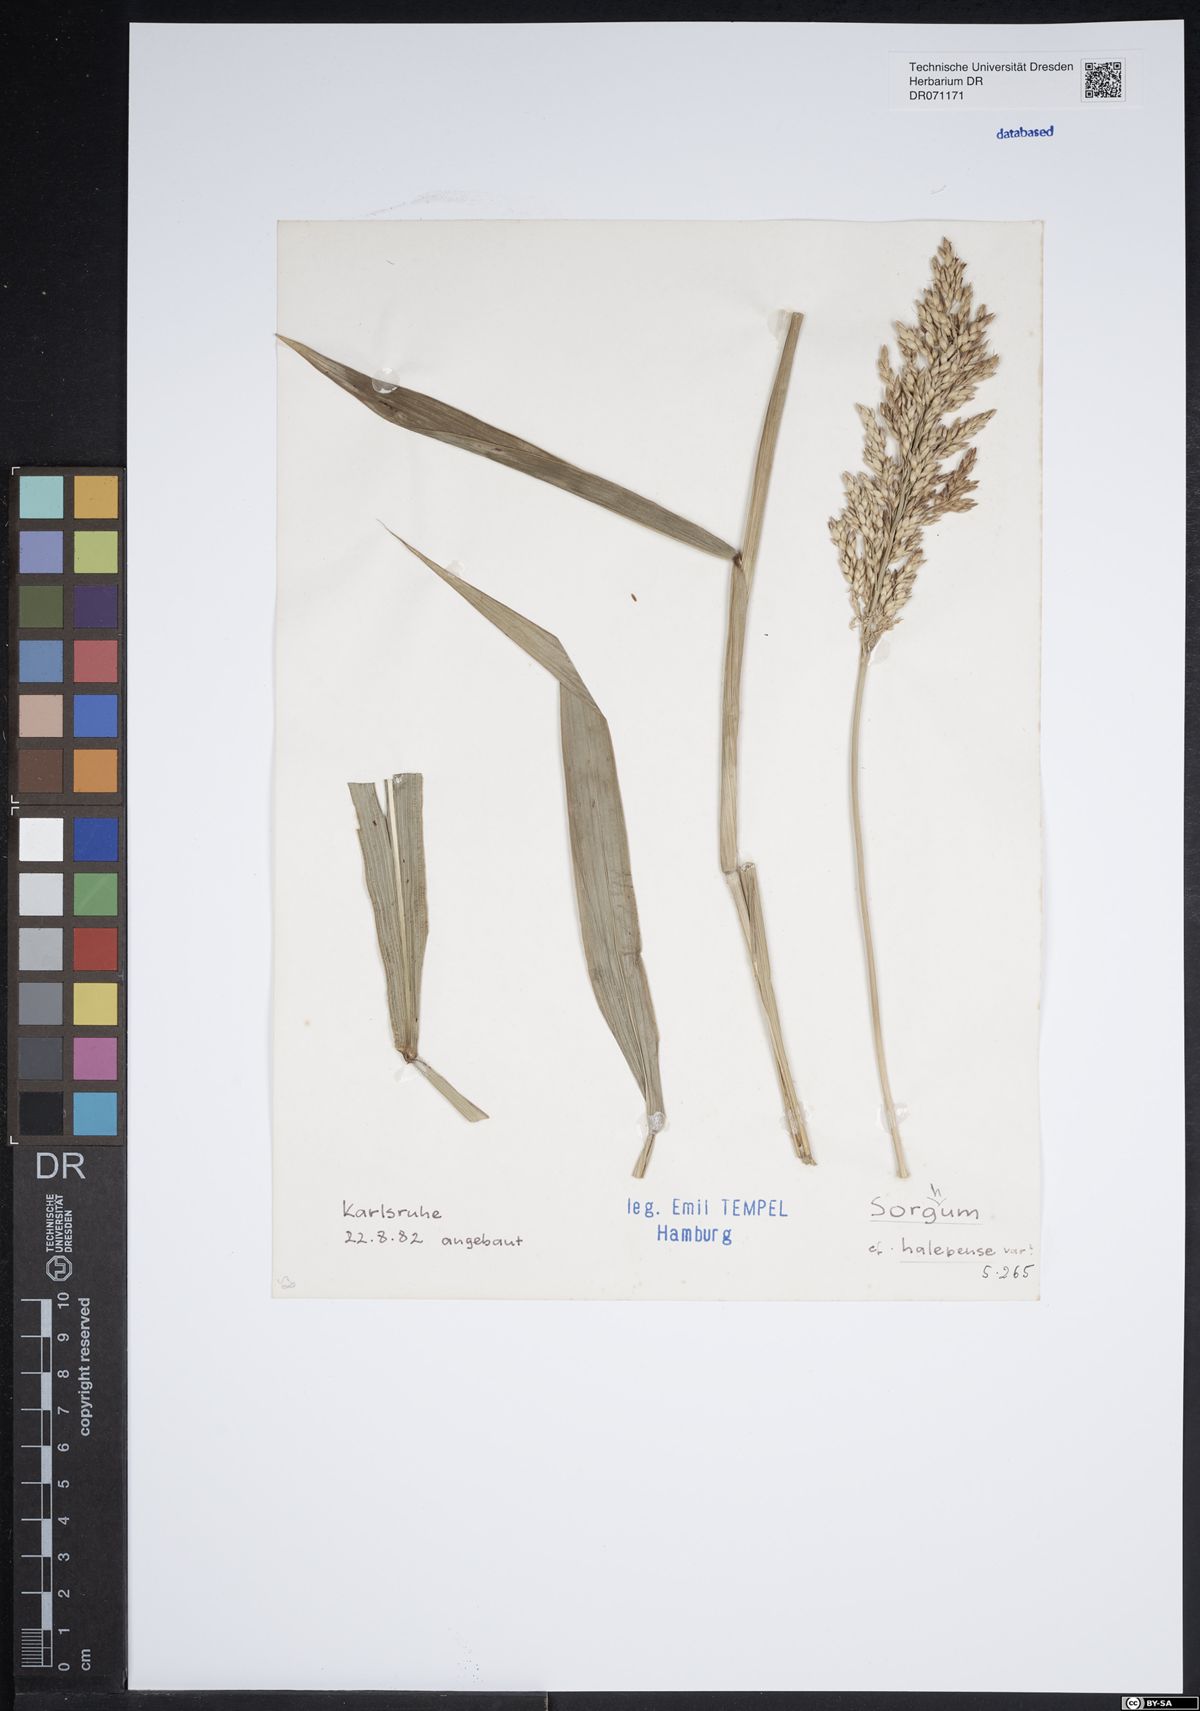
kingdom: Plantae
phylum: Tracheophyta
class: Liliopsida
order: Poales
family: Poaceae
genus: Sorghum
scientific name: Sorghum halepense
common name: Johnson-grass
